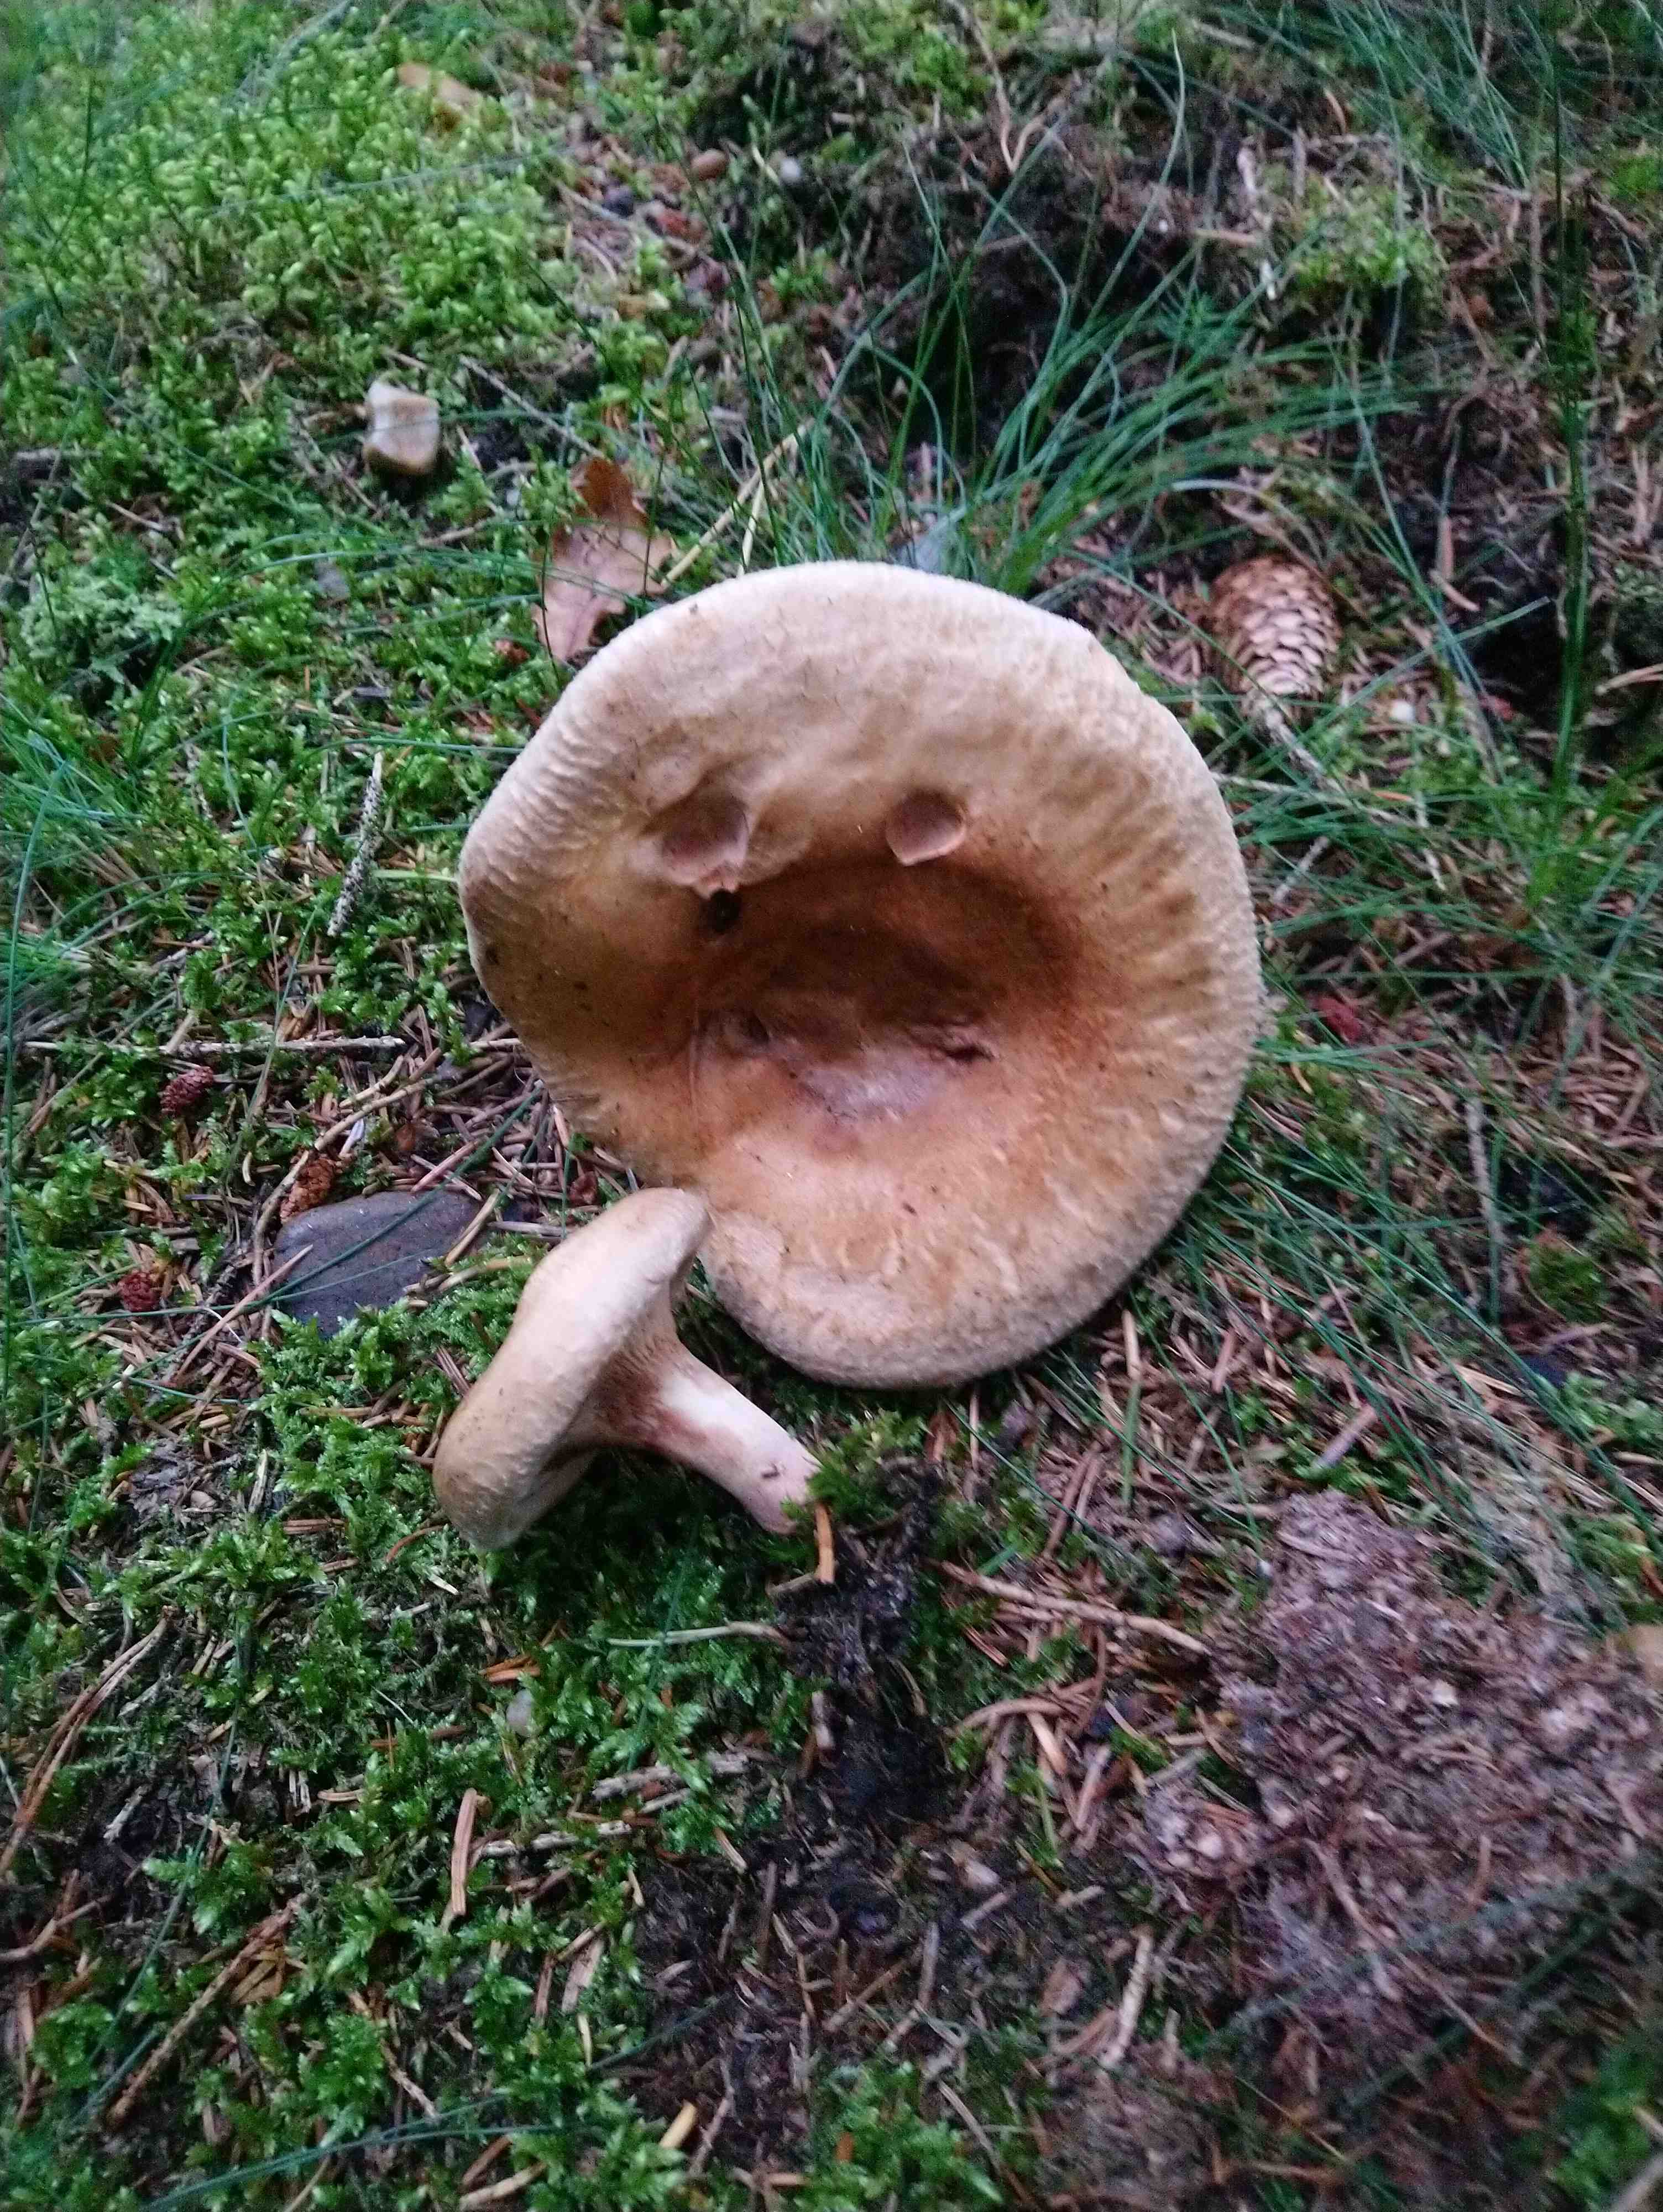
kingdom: Fungi
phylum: Basidiomycota
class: Agaricomycetes
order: Boletales
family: Paxillaceae
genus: Paxillus
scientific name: Paxillus
